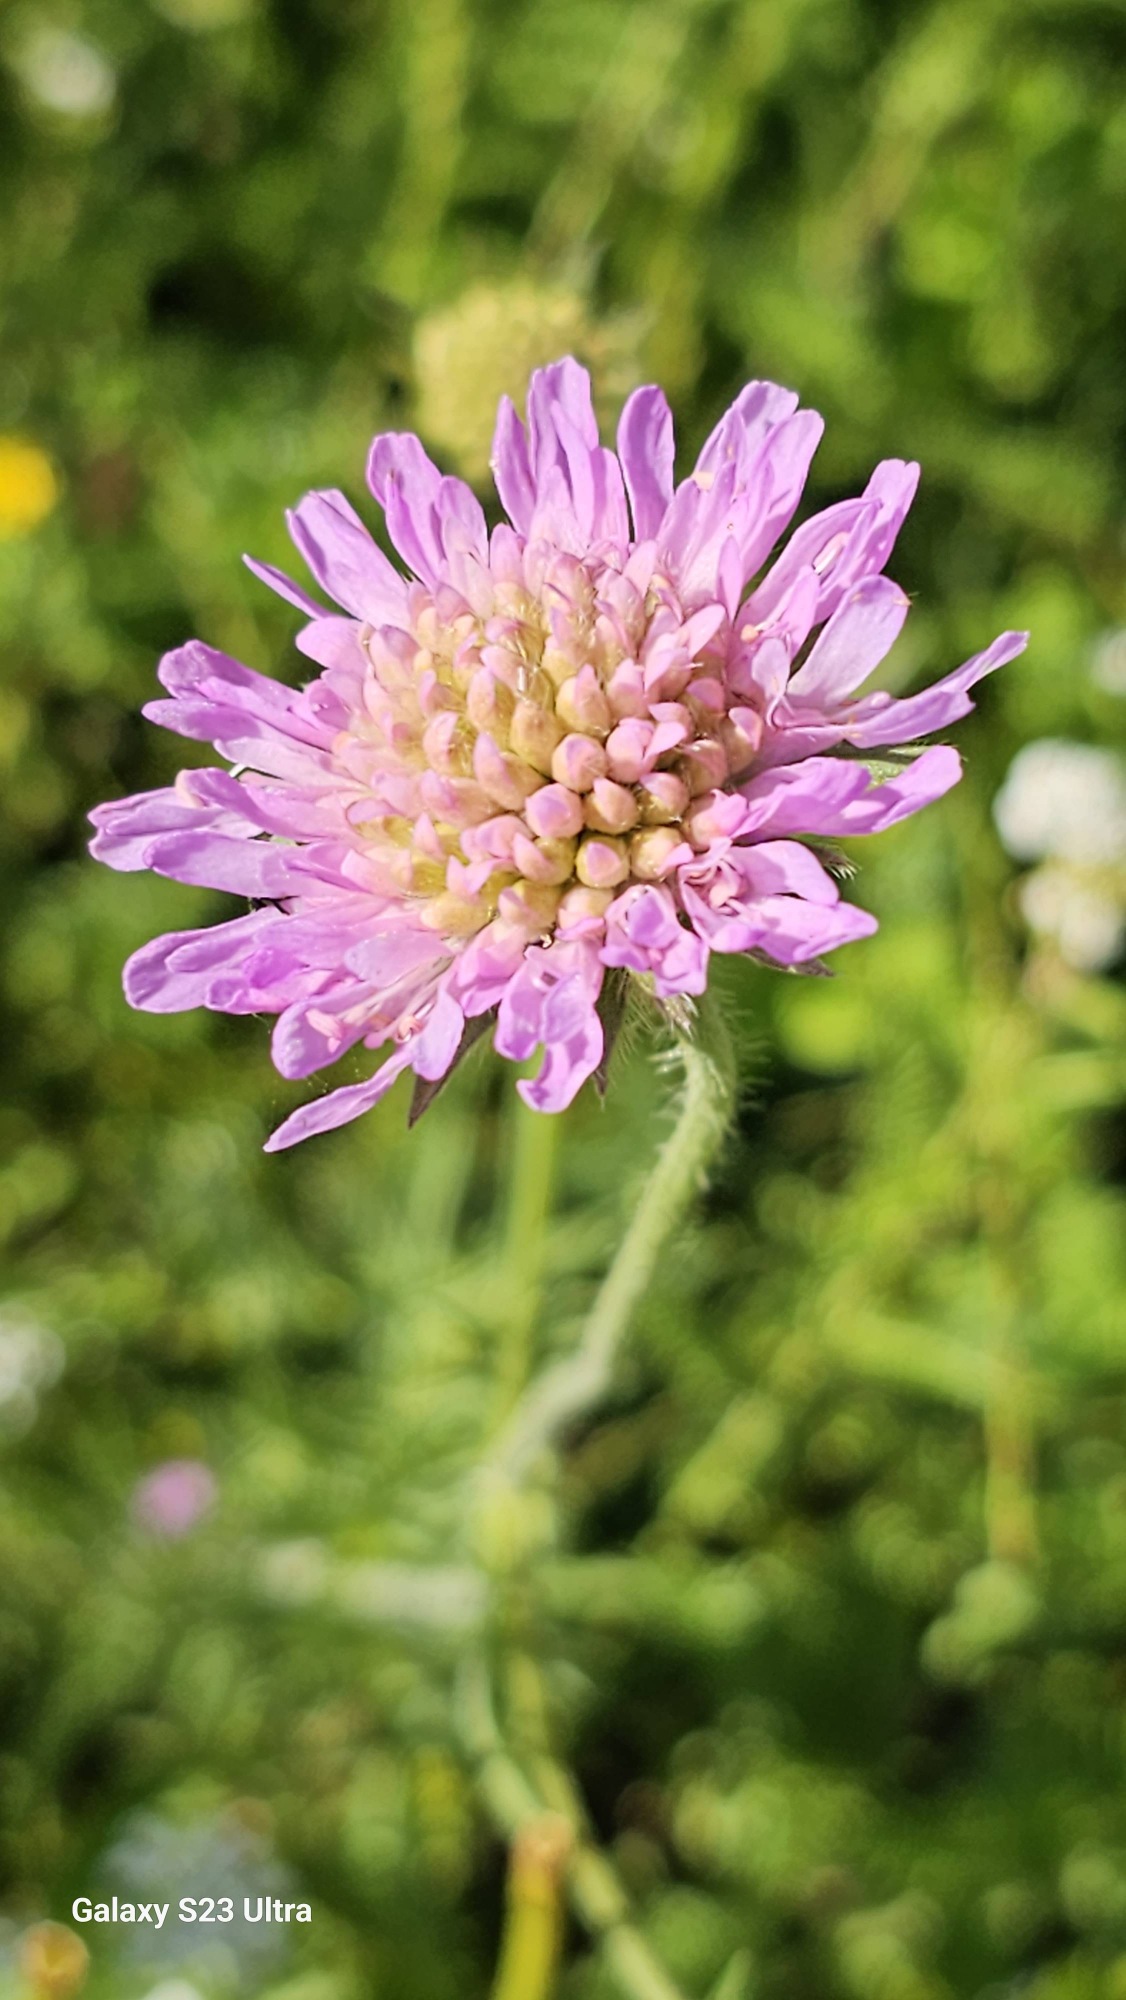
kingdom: Plantae
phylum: Tracheophyta
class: Magnoliopsida
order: Dipsacales
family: Caprifoliaceae
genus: Knautia
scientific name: Knautia arvensis
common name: Blåhat
